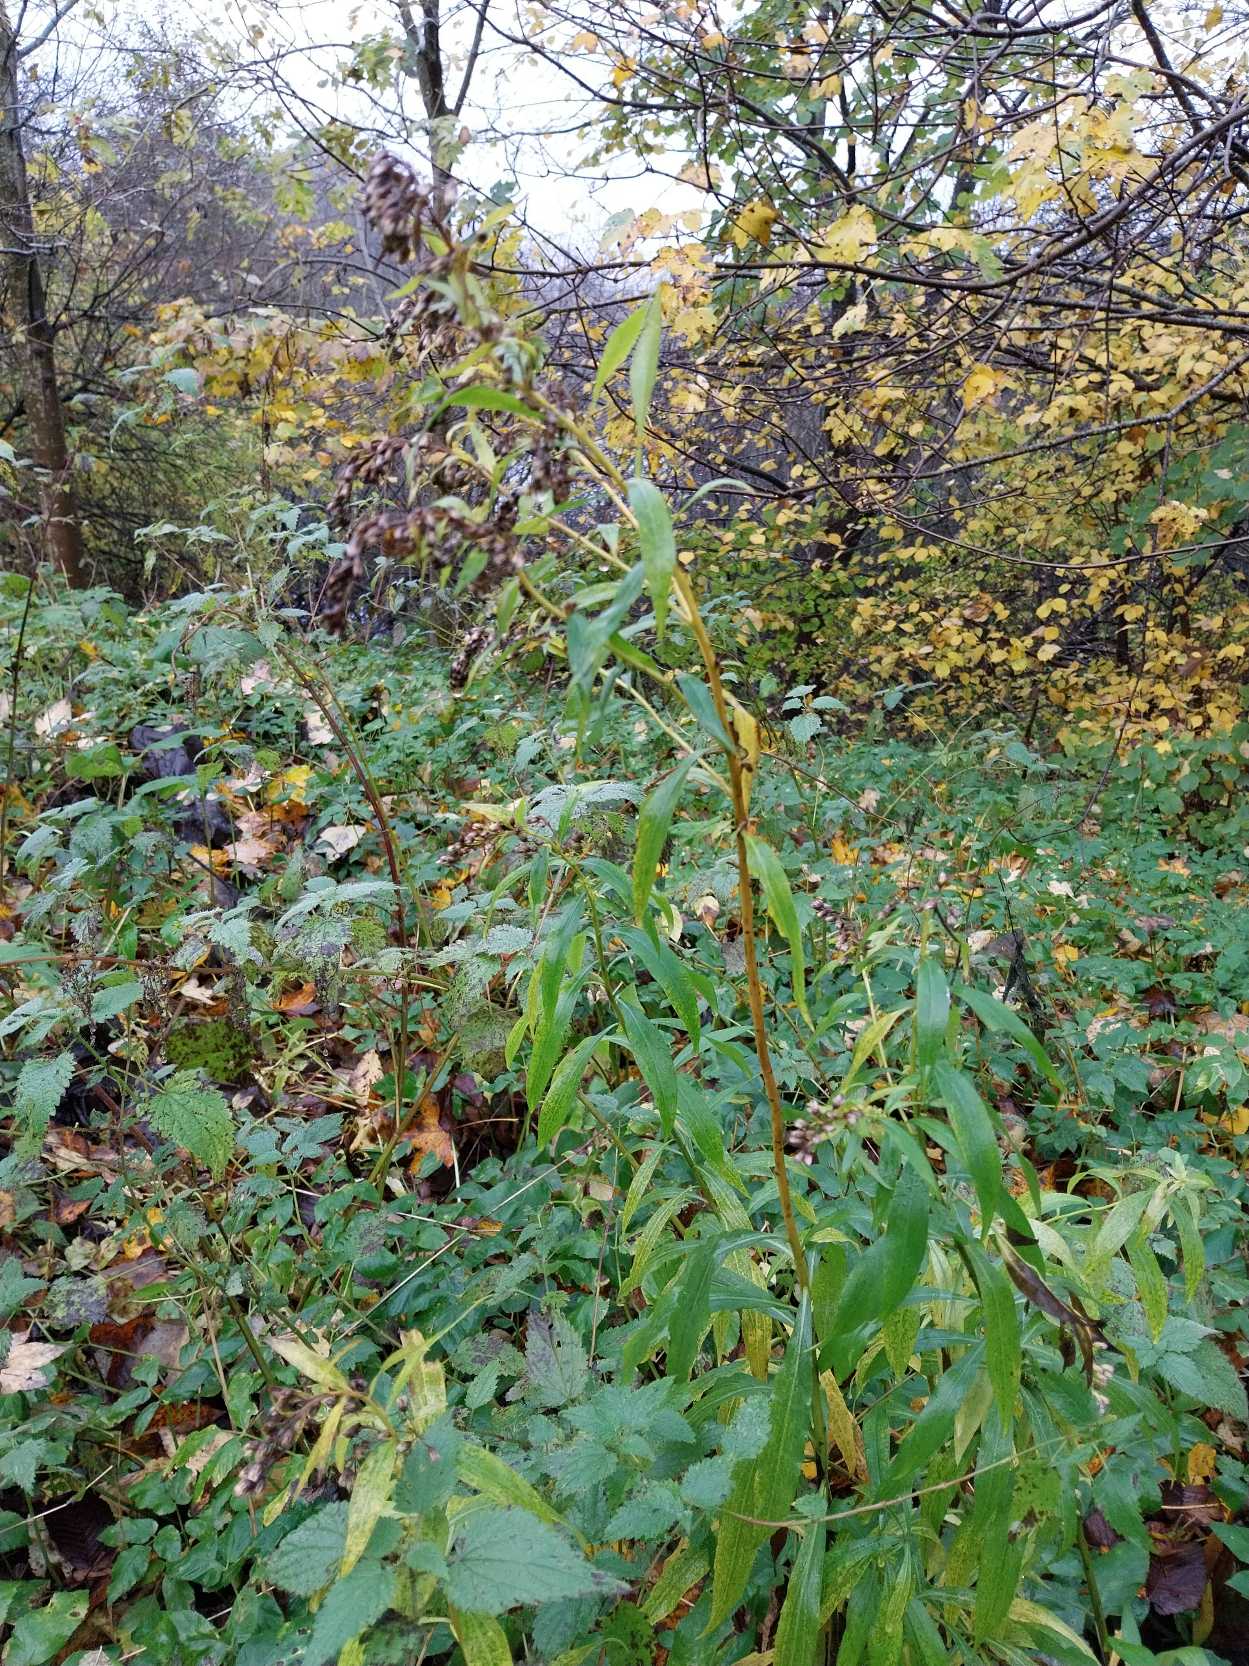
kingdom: Plantae
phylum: Tracheophyta
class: Magnoliopsida
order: Asterales
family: Asteraceae
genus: Solidago
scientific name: Solidago gigantea
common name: Sildig gyldenris
